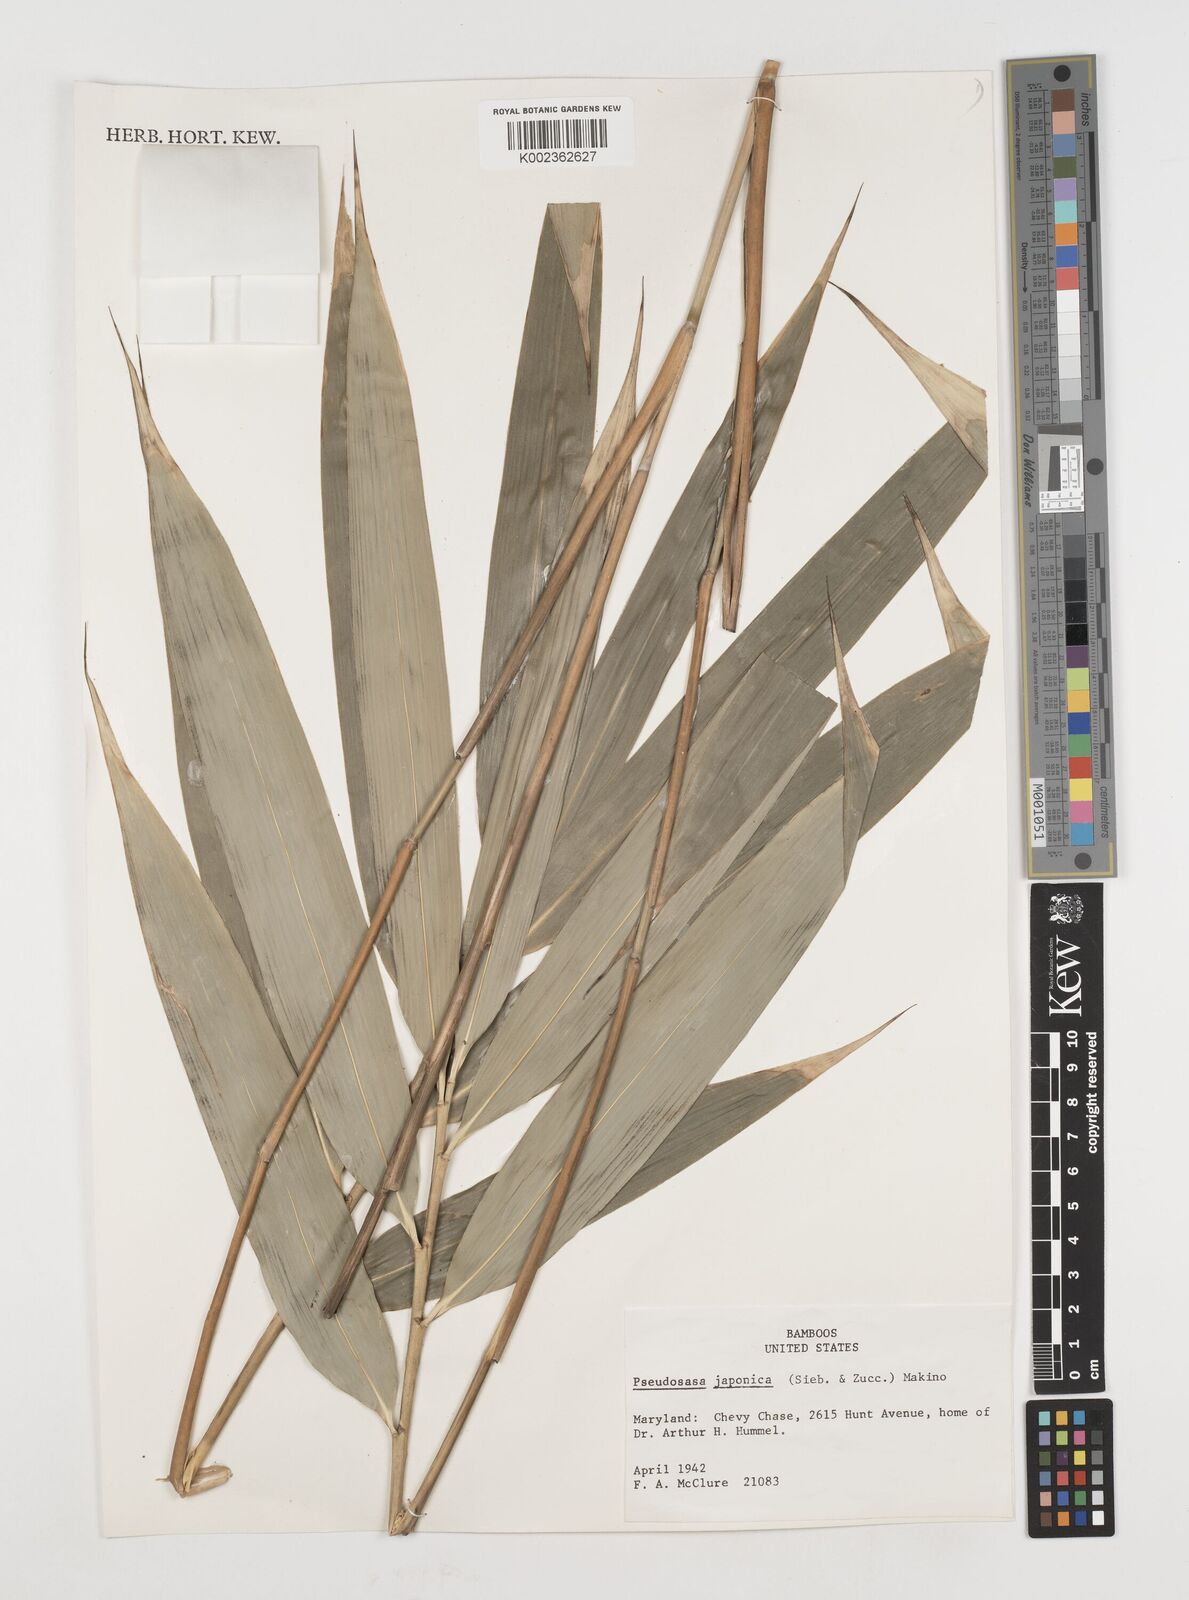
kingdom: Plantae
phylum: Tracheophyta
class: Liliopsida
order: Poales
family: Poaceae
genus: Pseudosasa
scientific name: Pseudosasa japonica
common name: Arrow bamboo
